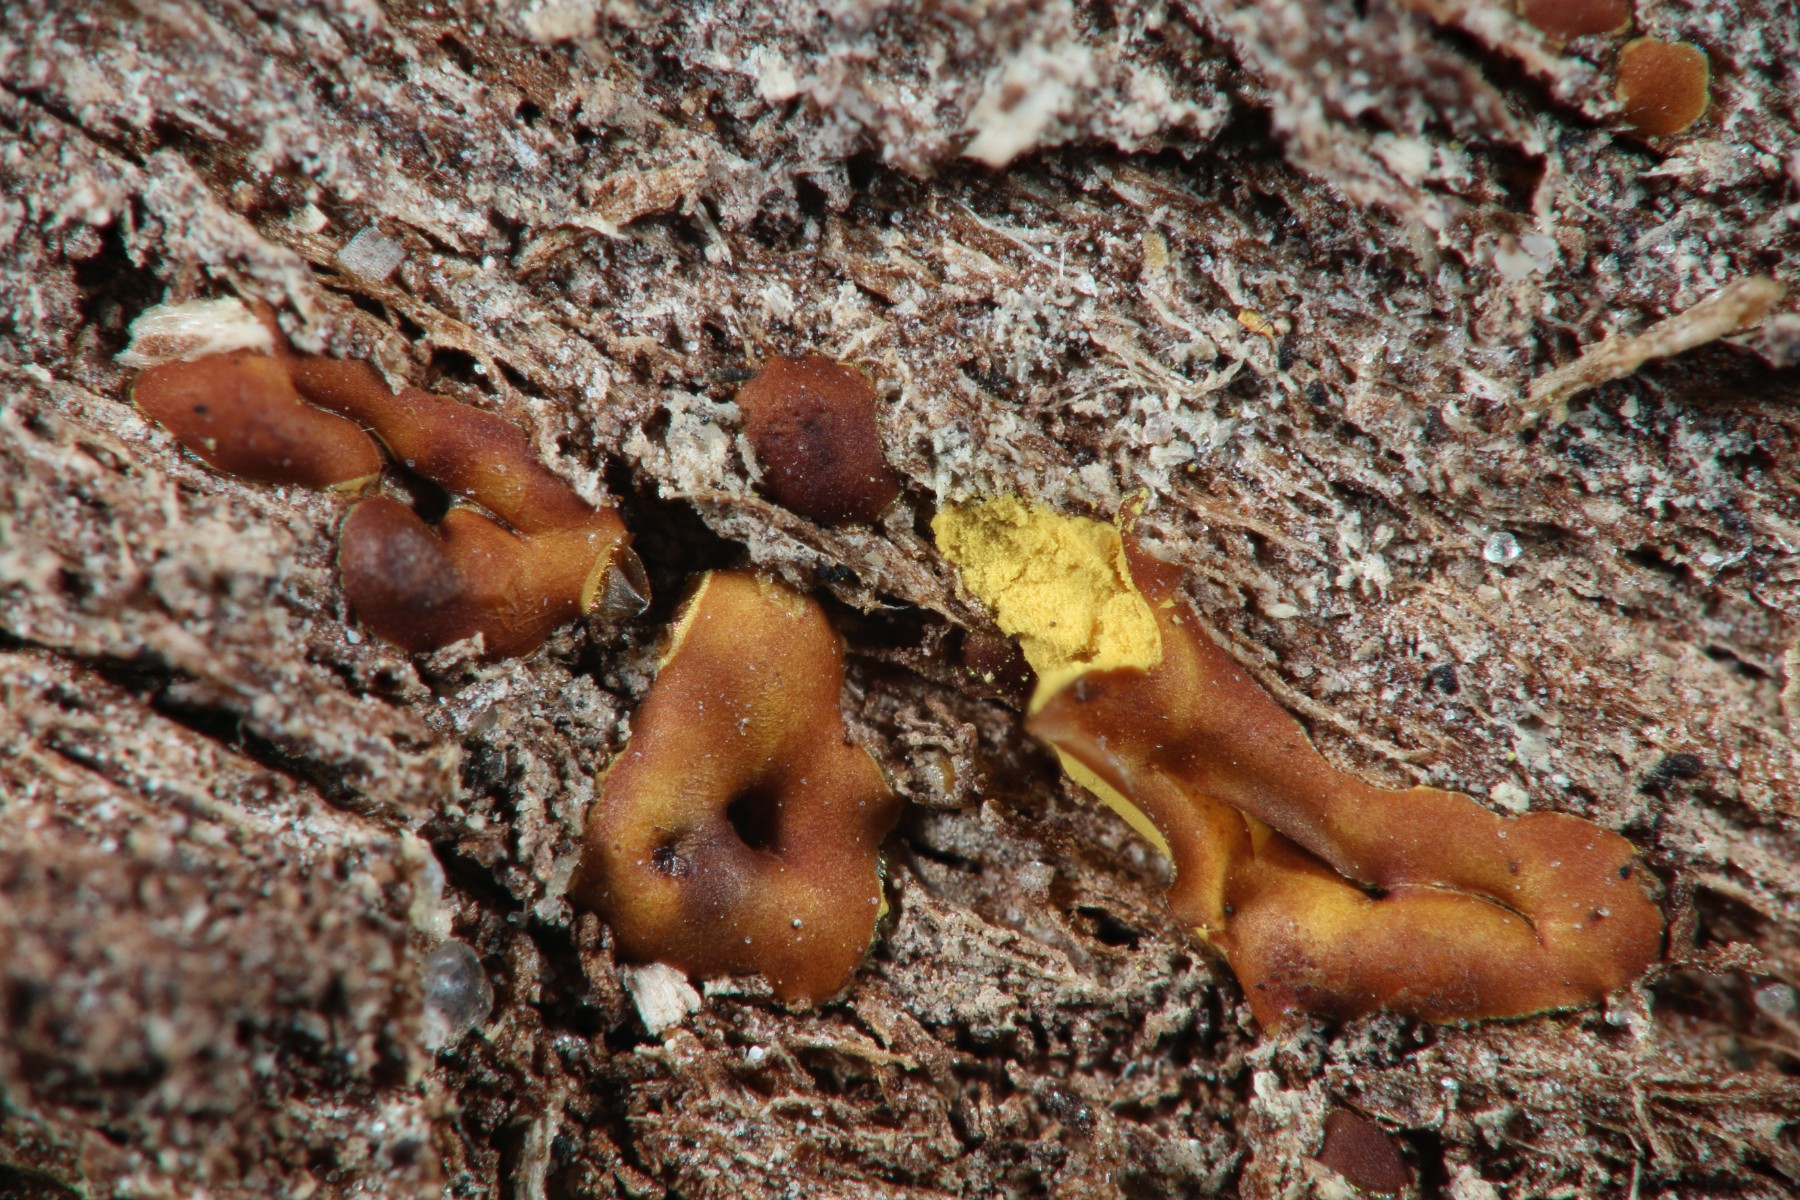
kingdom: Protozoa
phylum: Mycetozoa
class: Myxomycetes
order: Trichiales
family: Trichiaceae
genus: Perichaena
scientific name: Perichaena depressa
